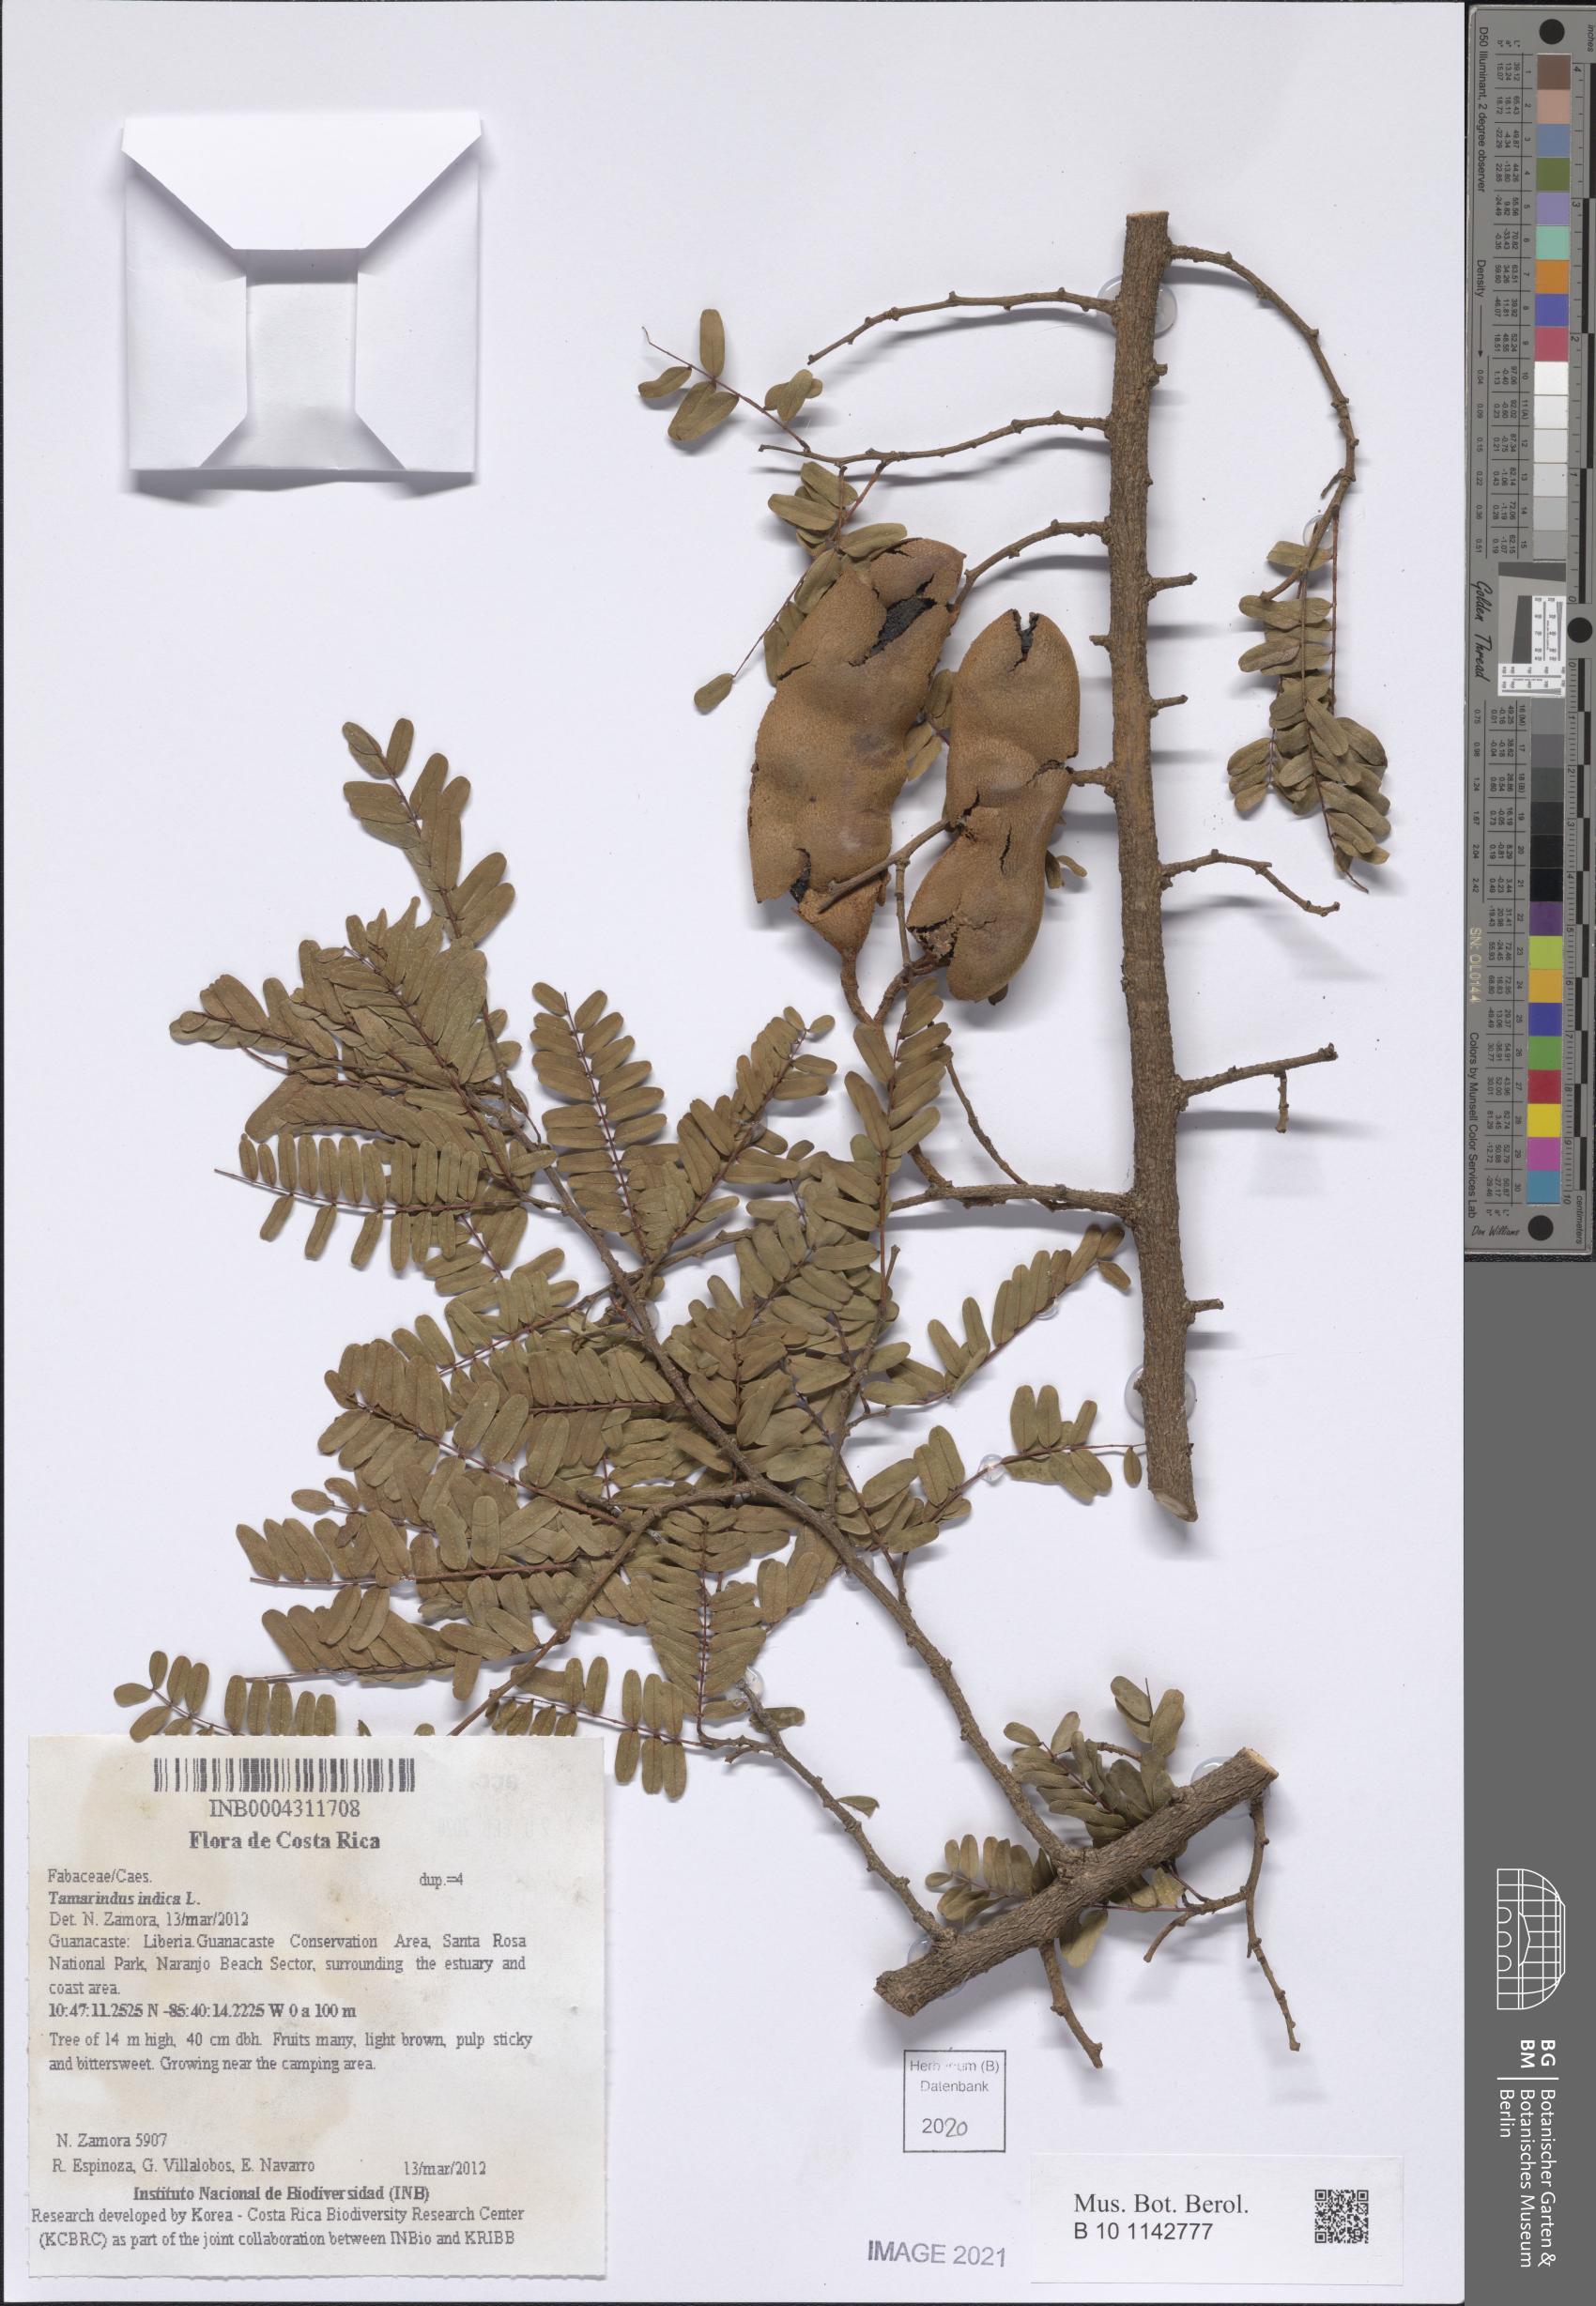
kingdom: Plantae
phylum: Tracheophyta
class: Magnoliopsida
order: Fabales
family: Fabaceae
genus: Tamarindus
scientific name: Tamarindus indica
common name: Tamarind
